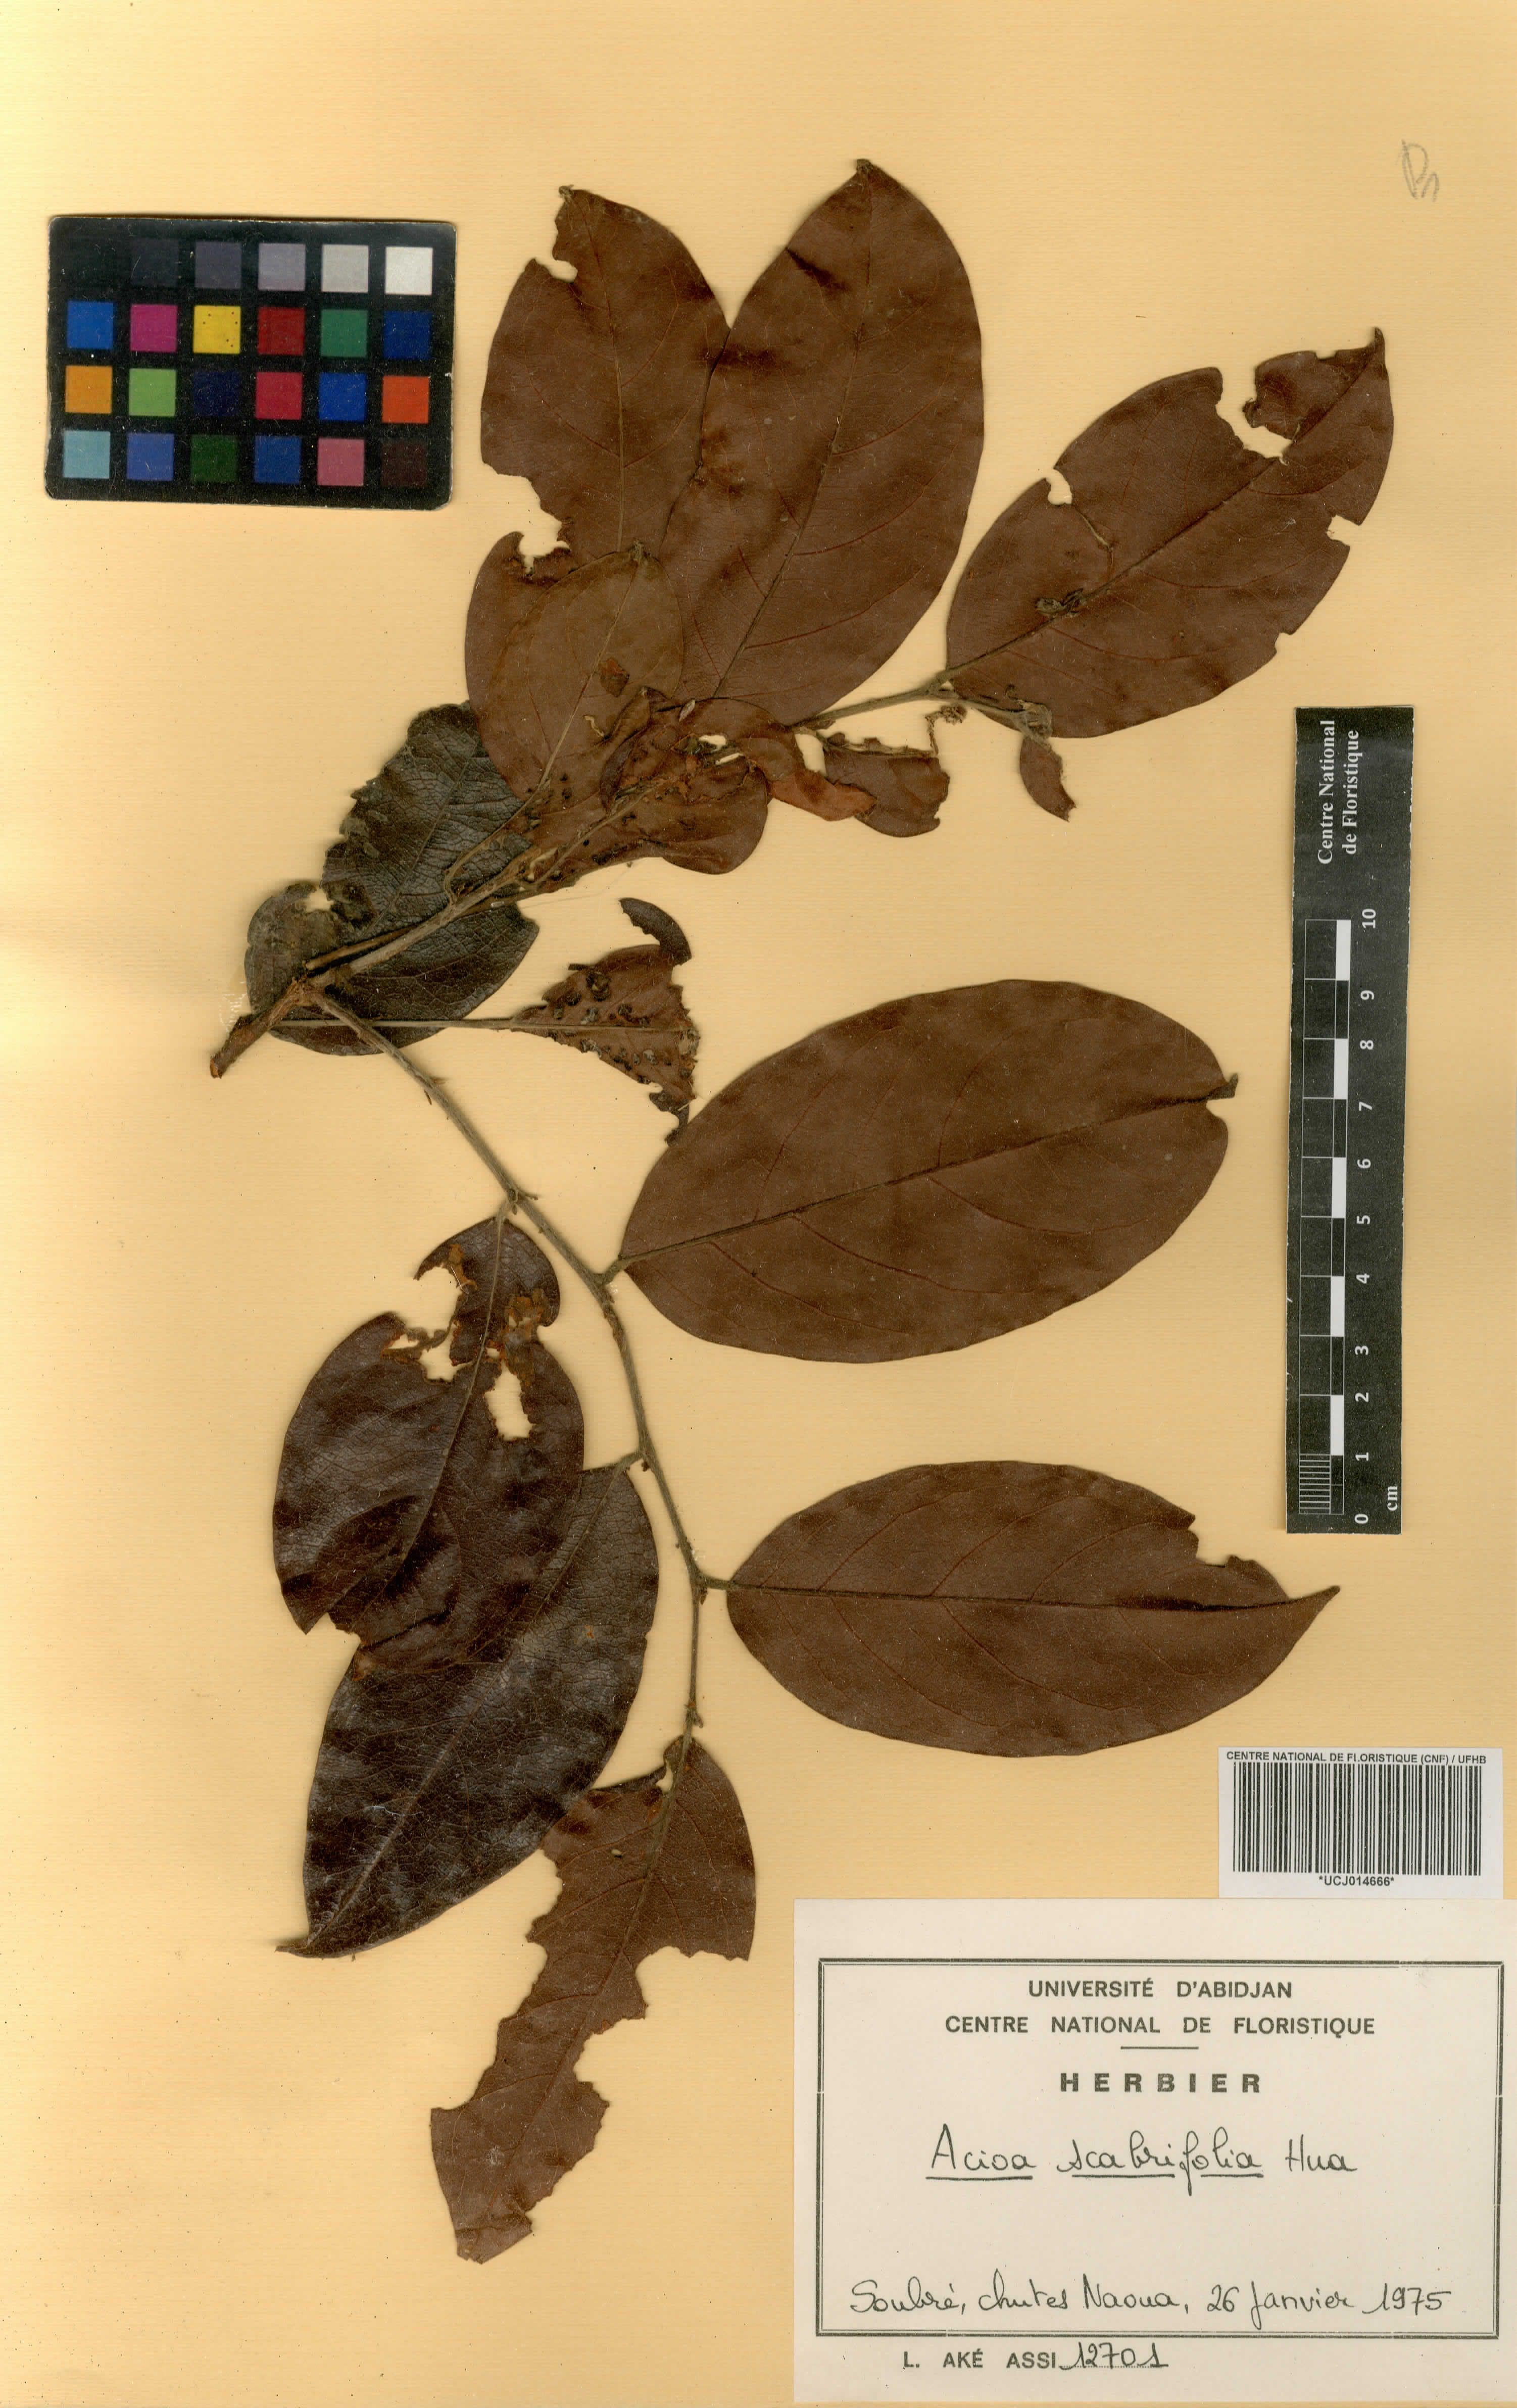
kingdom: Plantae
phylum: Tracheophyta
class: Magnoliopsida
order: Malpighiales
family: Chrysobalanaceae
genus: Dactyladenia
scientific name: Dactyladenia scabrifolia
